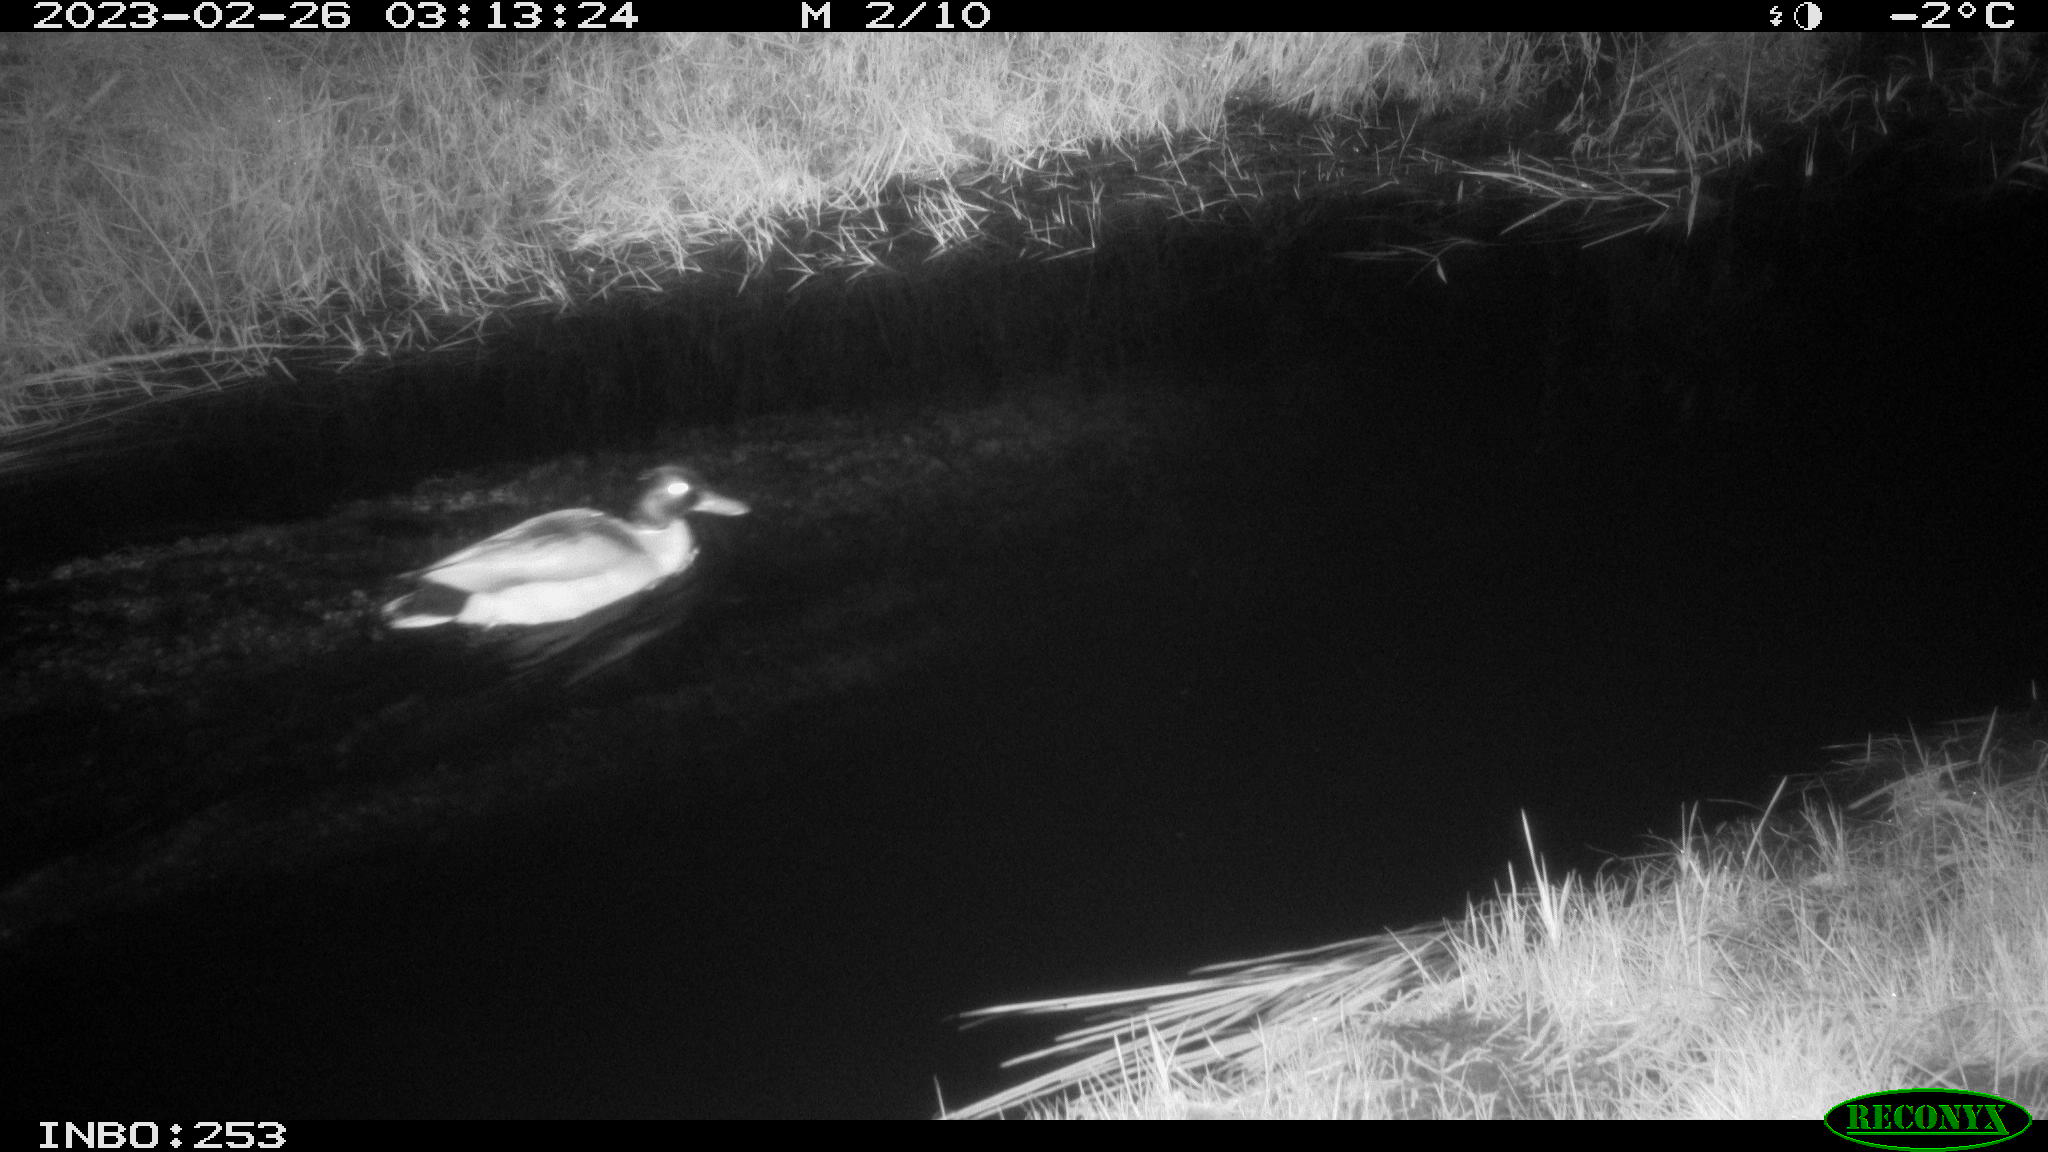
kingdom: Animalia
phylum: Chordata
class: Aves
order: Anseriformes
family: Anatidae
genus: Anas
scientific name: Anas
